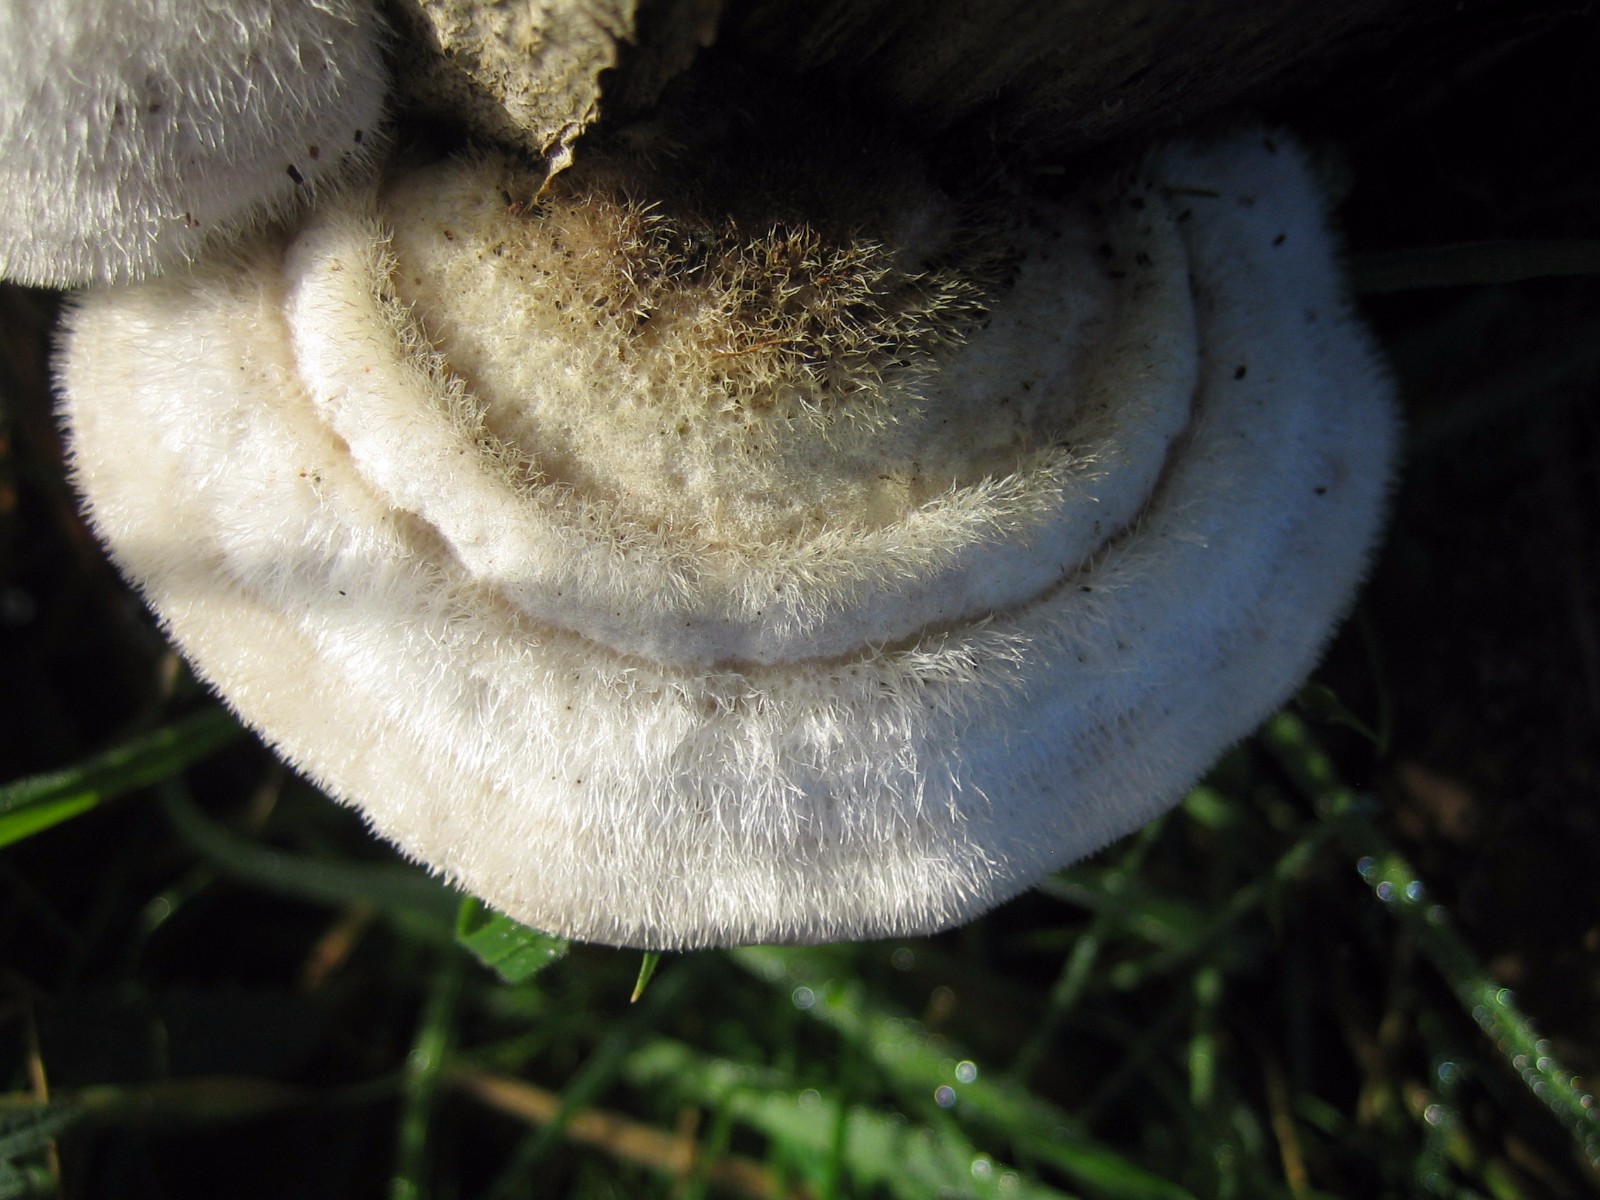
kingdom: Fungi
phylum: Basidiomycota
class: Agaricomycetes
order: Polyporales
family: Polyporaceae
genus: Trametes
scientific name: Trametes hirsuta
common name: håret læderporesvamp
